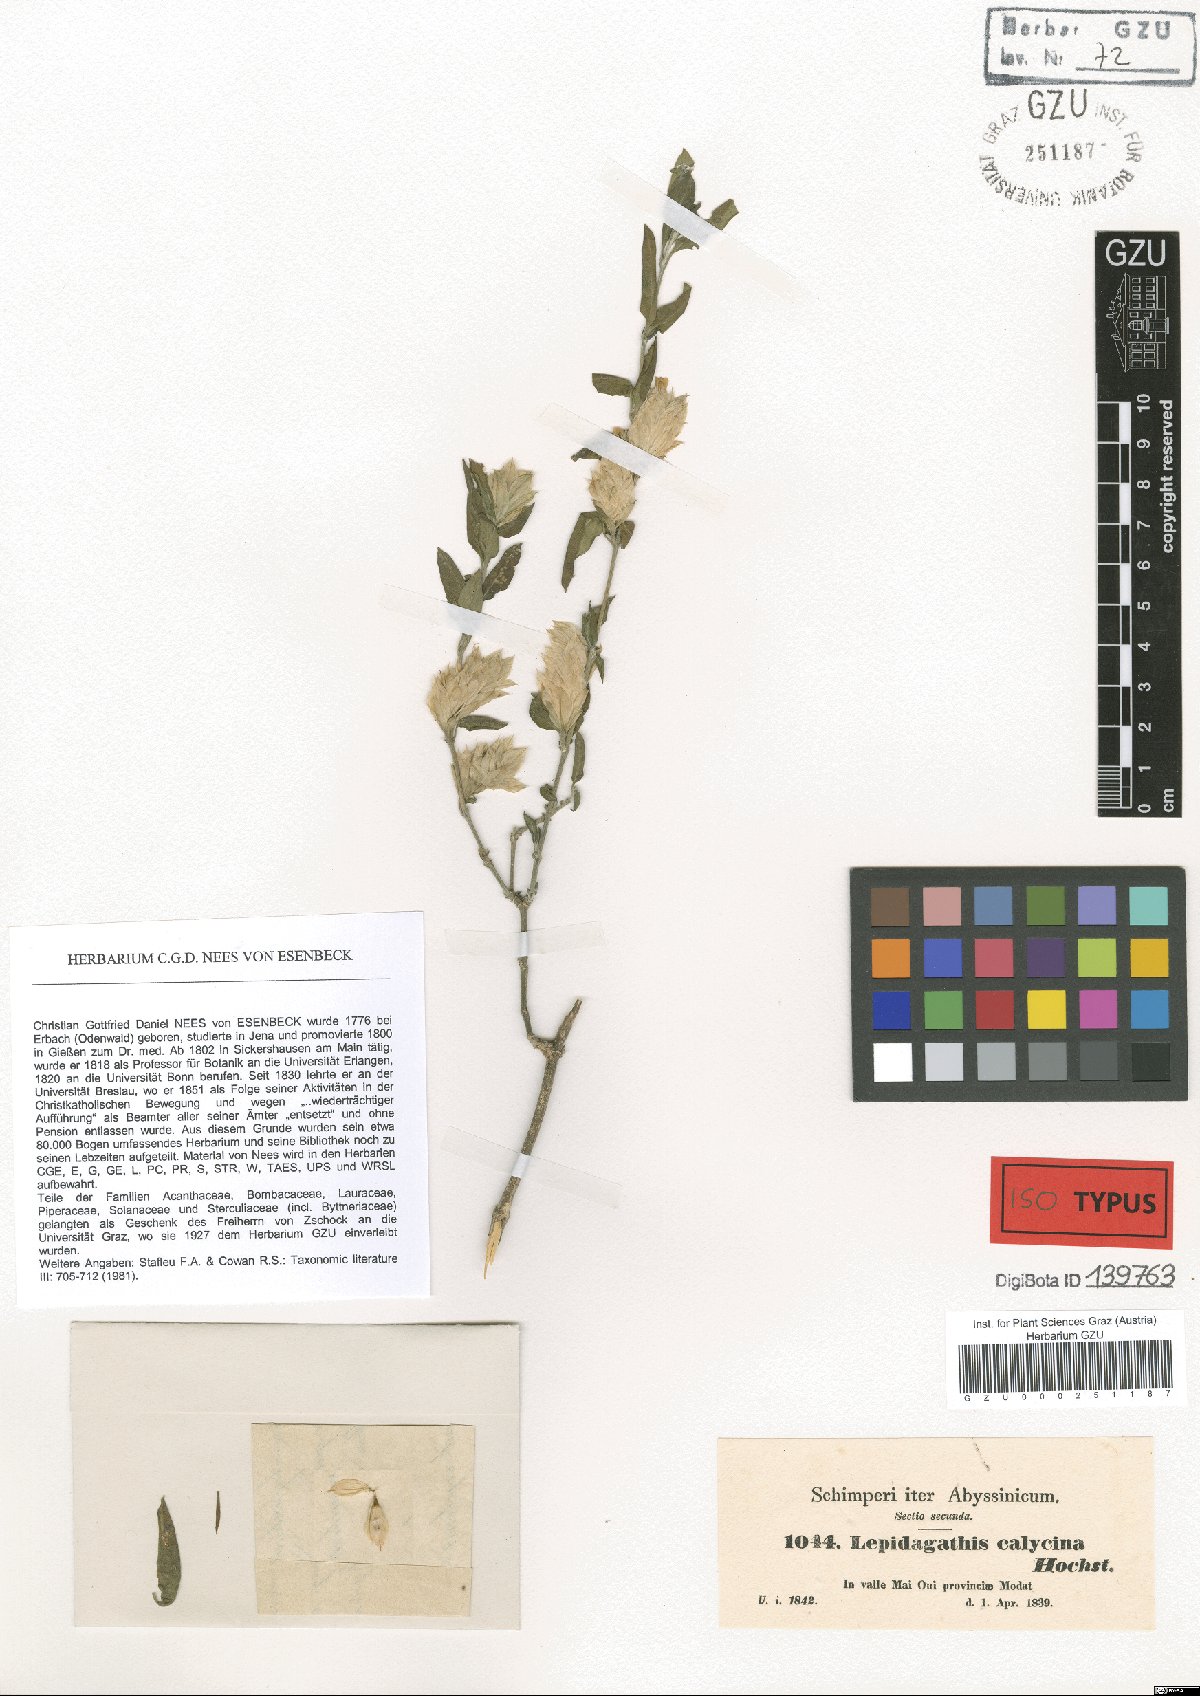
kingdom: Plantae
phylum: Tracheophyta
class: Magnoliopsida
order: Lamiales
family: Acanthaceae
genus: Lepidagathis
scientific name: Lepidagathis calycina
